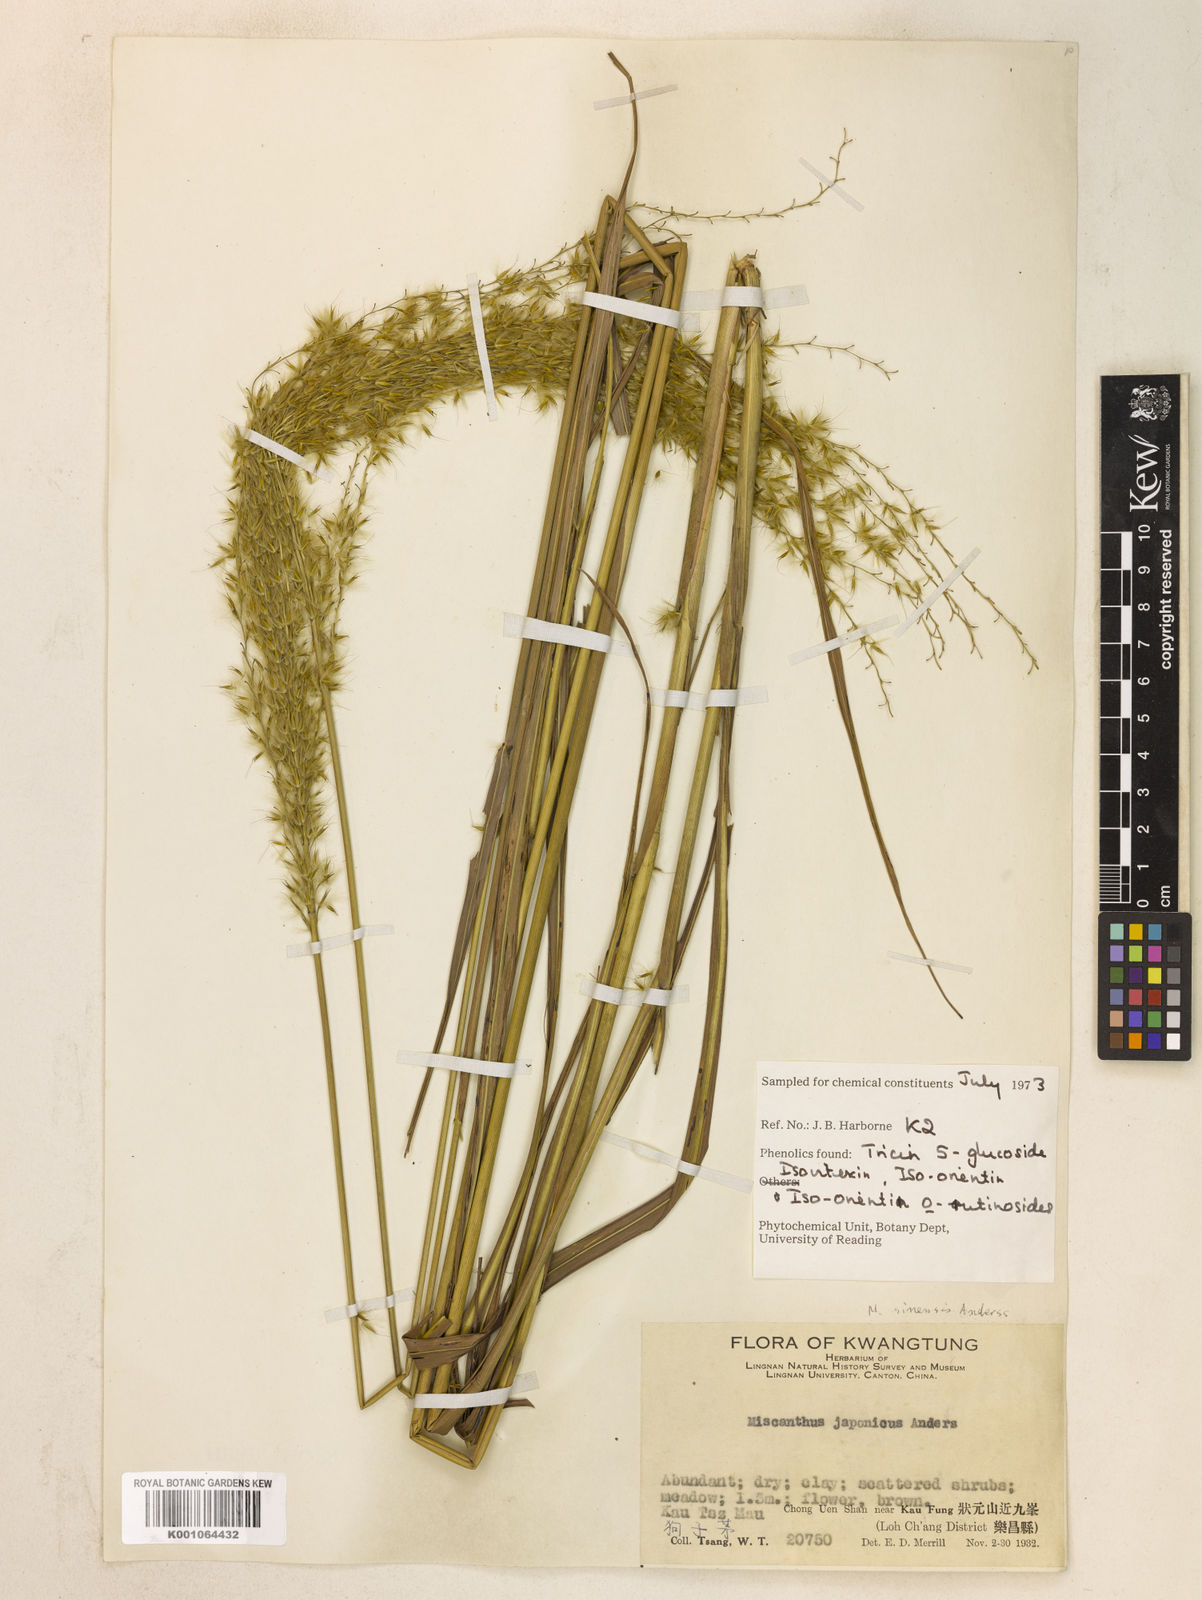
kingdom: Plantae
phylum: Tracheophyta
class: Liliopsida
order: Poales
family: Poaceae
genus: Miscanthus
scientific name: Miscanthus sinensis
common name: Chinese silvergrass
